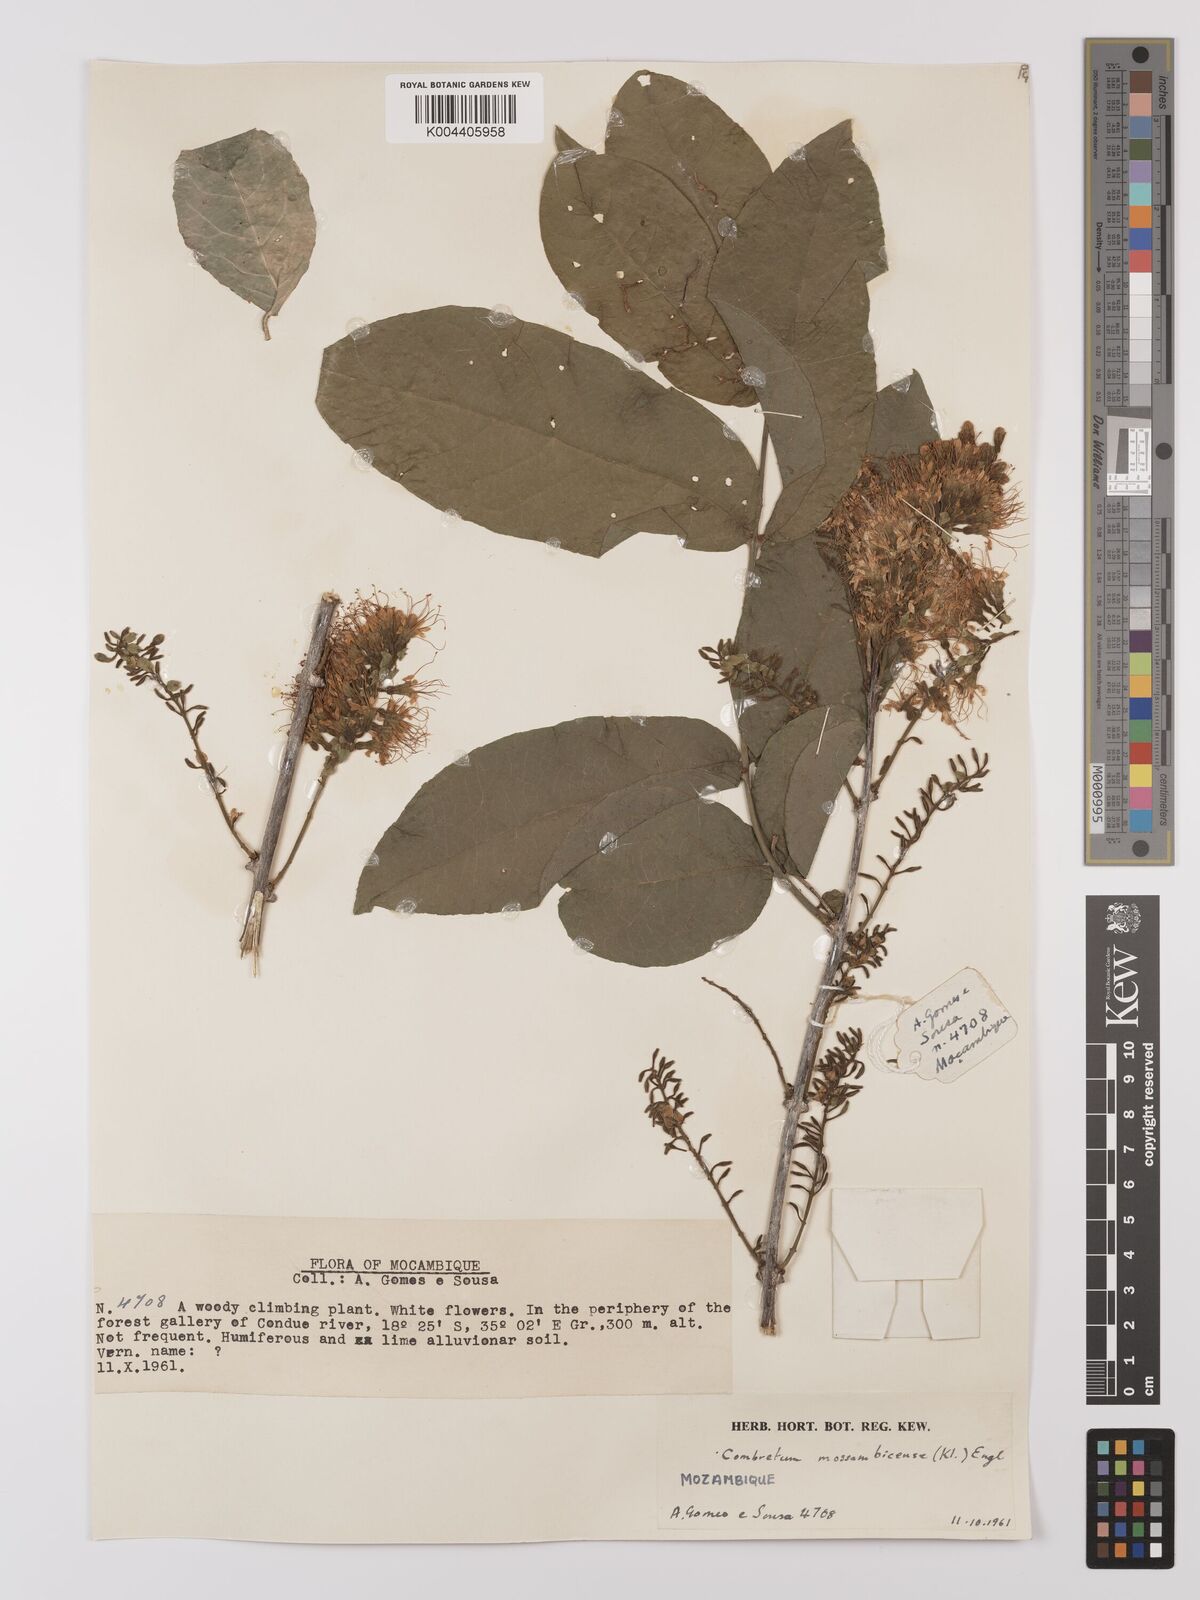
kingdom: Plantae
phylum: Tracheophyta
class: Magnoliopsida
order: Myrtales
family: Combretaceae
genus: Combretum
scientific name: Combretum mossambicense
